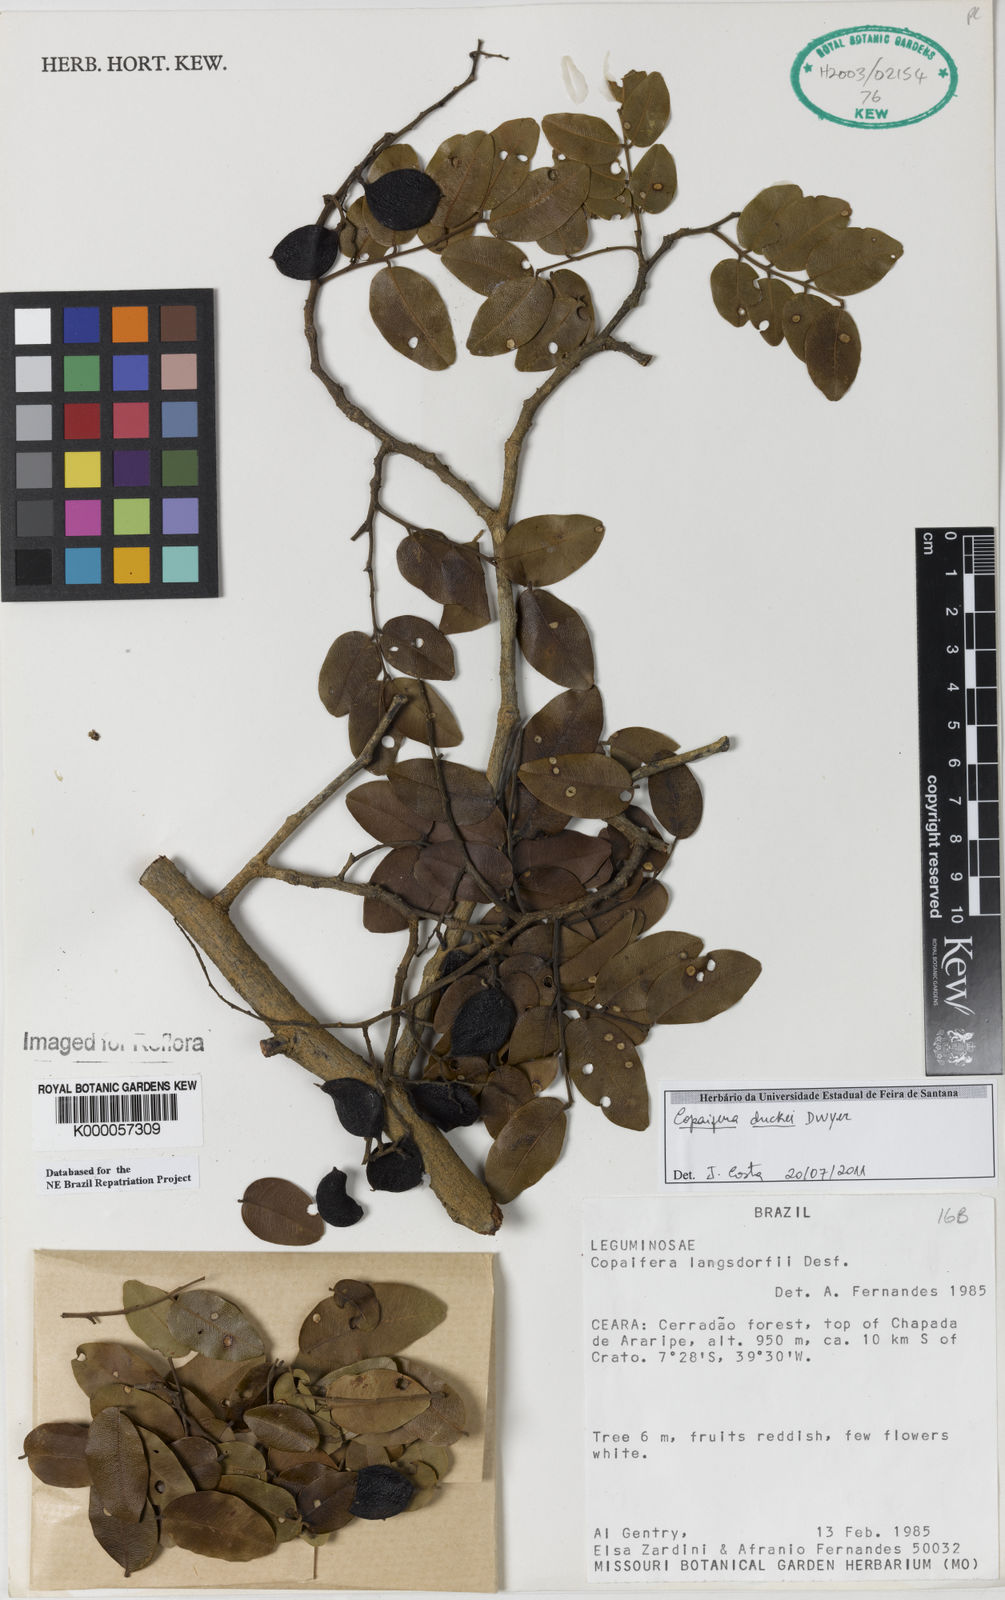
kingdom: Plantae
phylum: Tracheophyta
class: Magnoliopsida
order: Fabales
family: Fabaceae
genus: Copaifera
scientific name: Copaifera duckei
